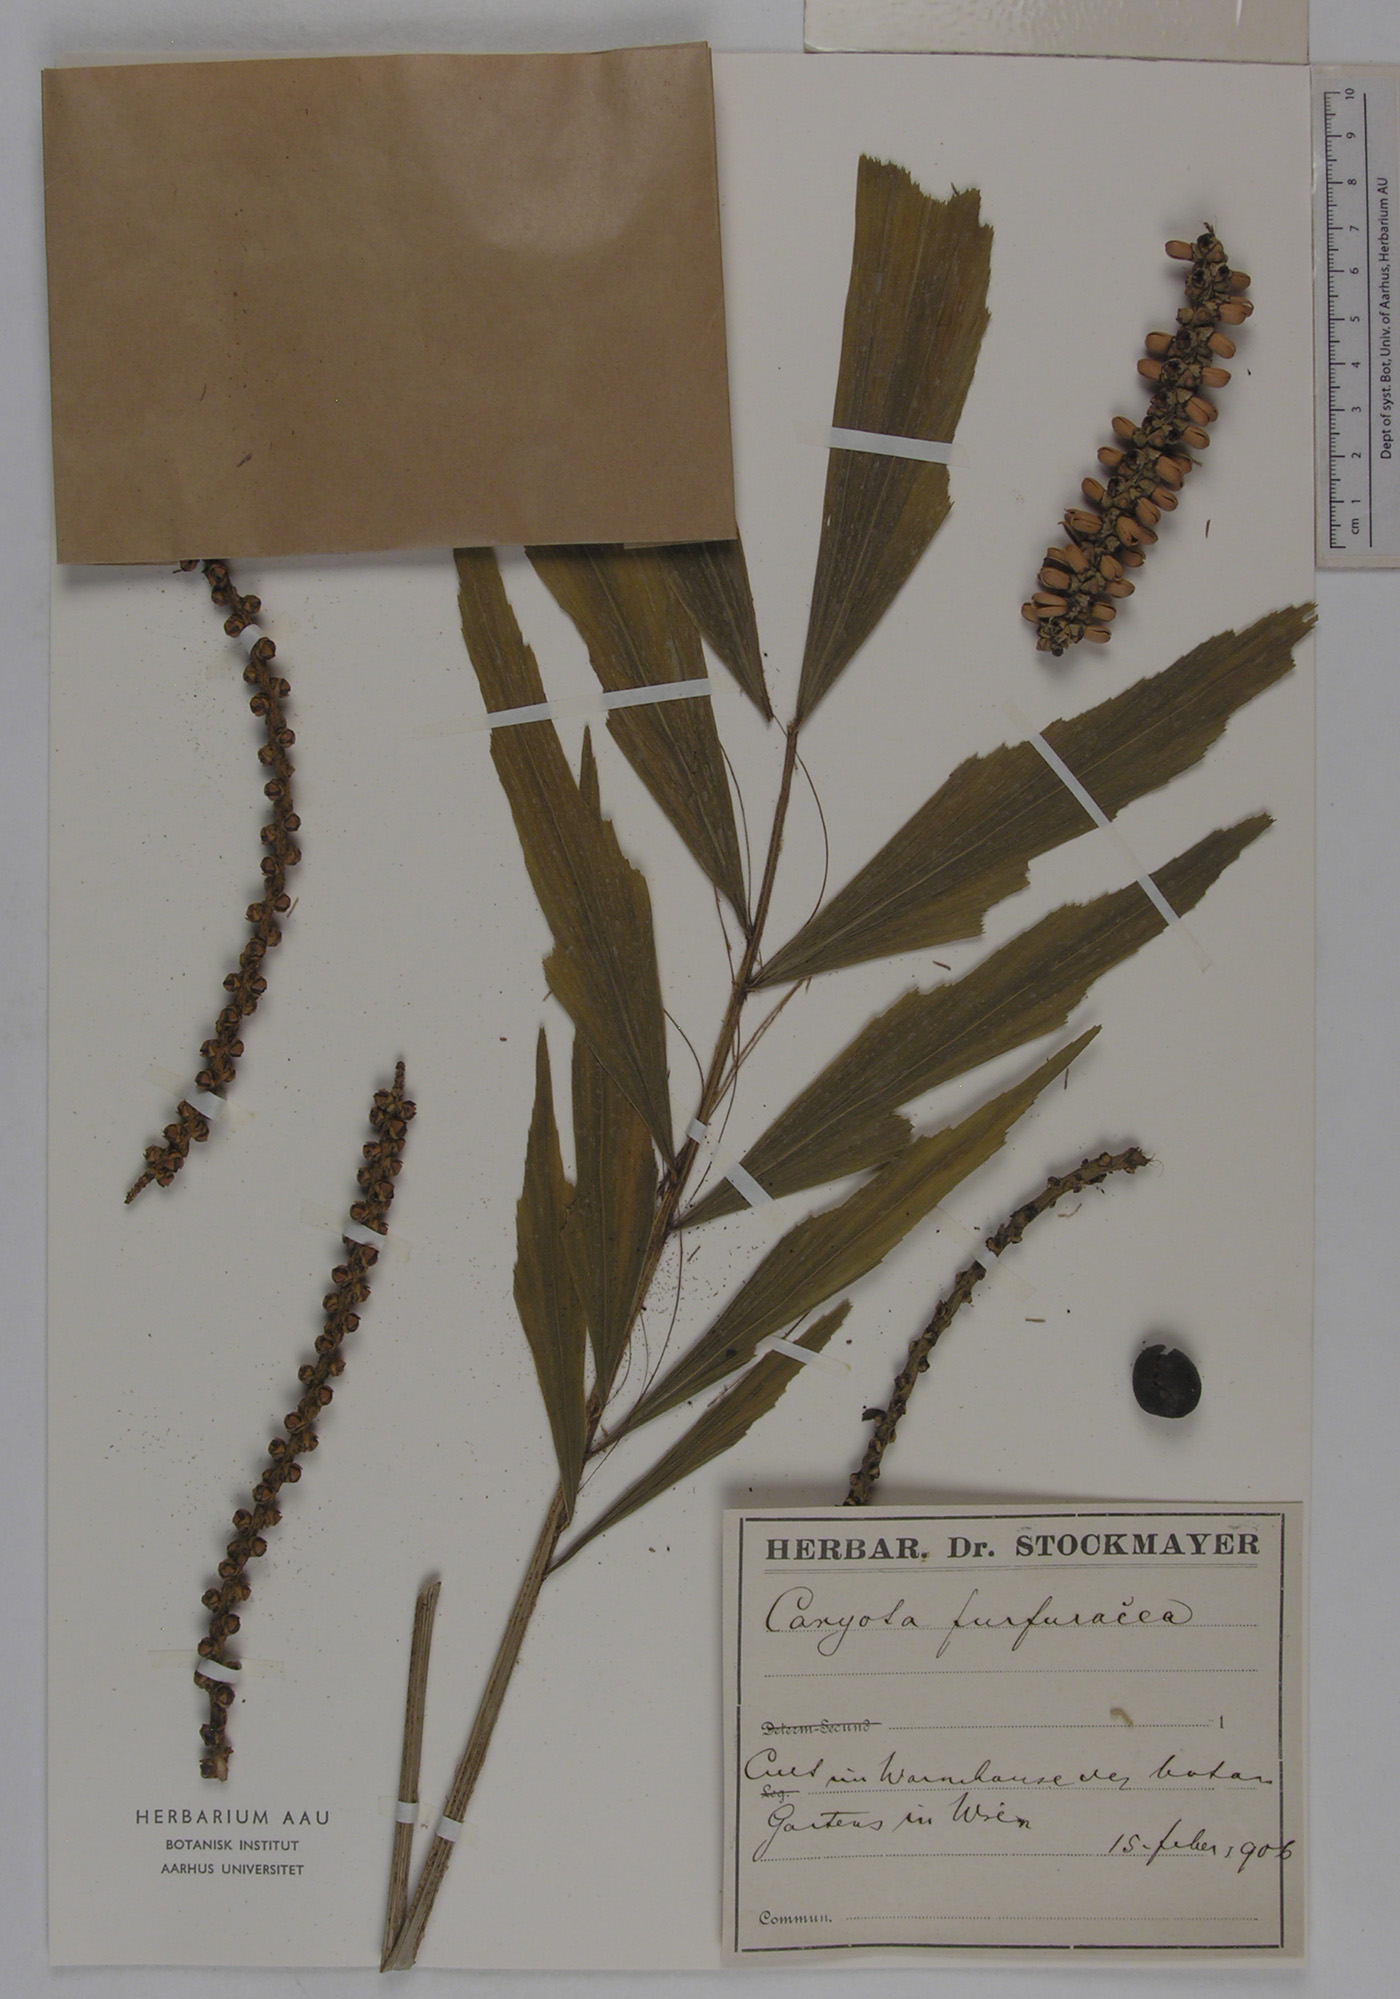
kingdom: Plantae
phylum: Tracheophyta
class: Liliopsida
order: Arecales
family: Arecaceae
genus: Caryota
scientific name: Caryota mitis
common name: Burmese fishtail palm
